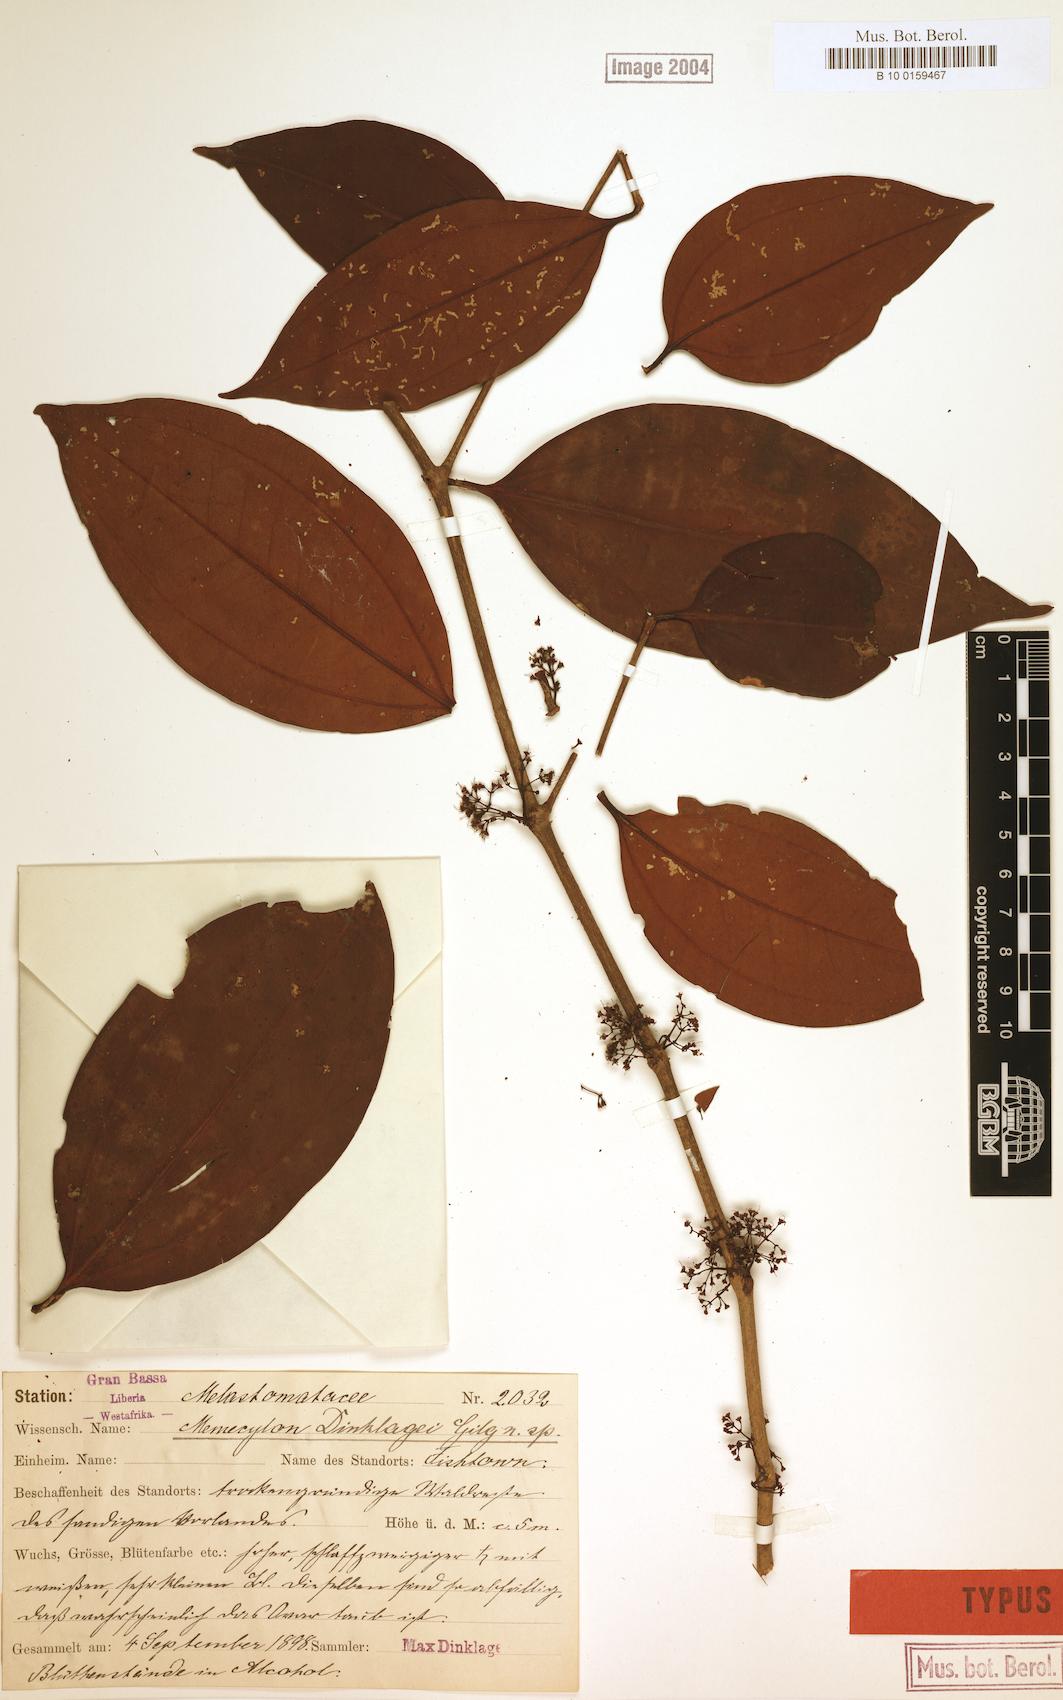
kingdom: Plantae
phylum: Tracheophyta
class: Magnoliopsida
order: Myrtales
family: Melastomataceae
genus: Lijndenia
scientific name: Lijndenia barteri
